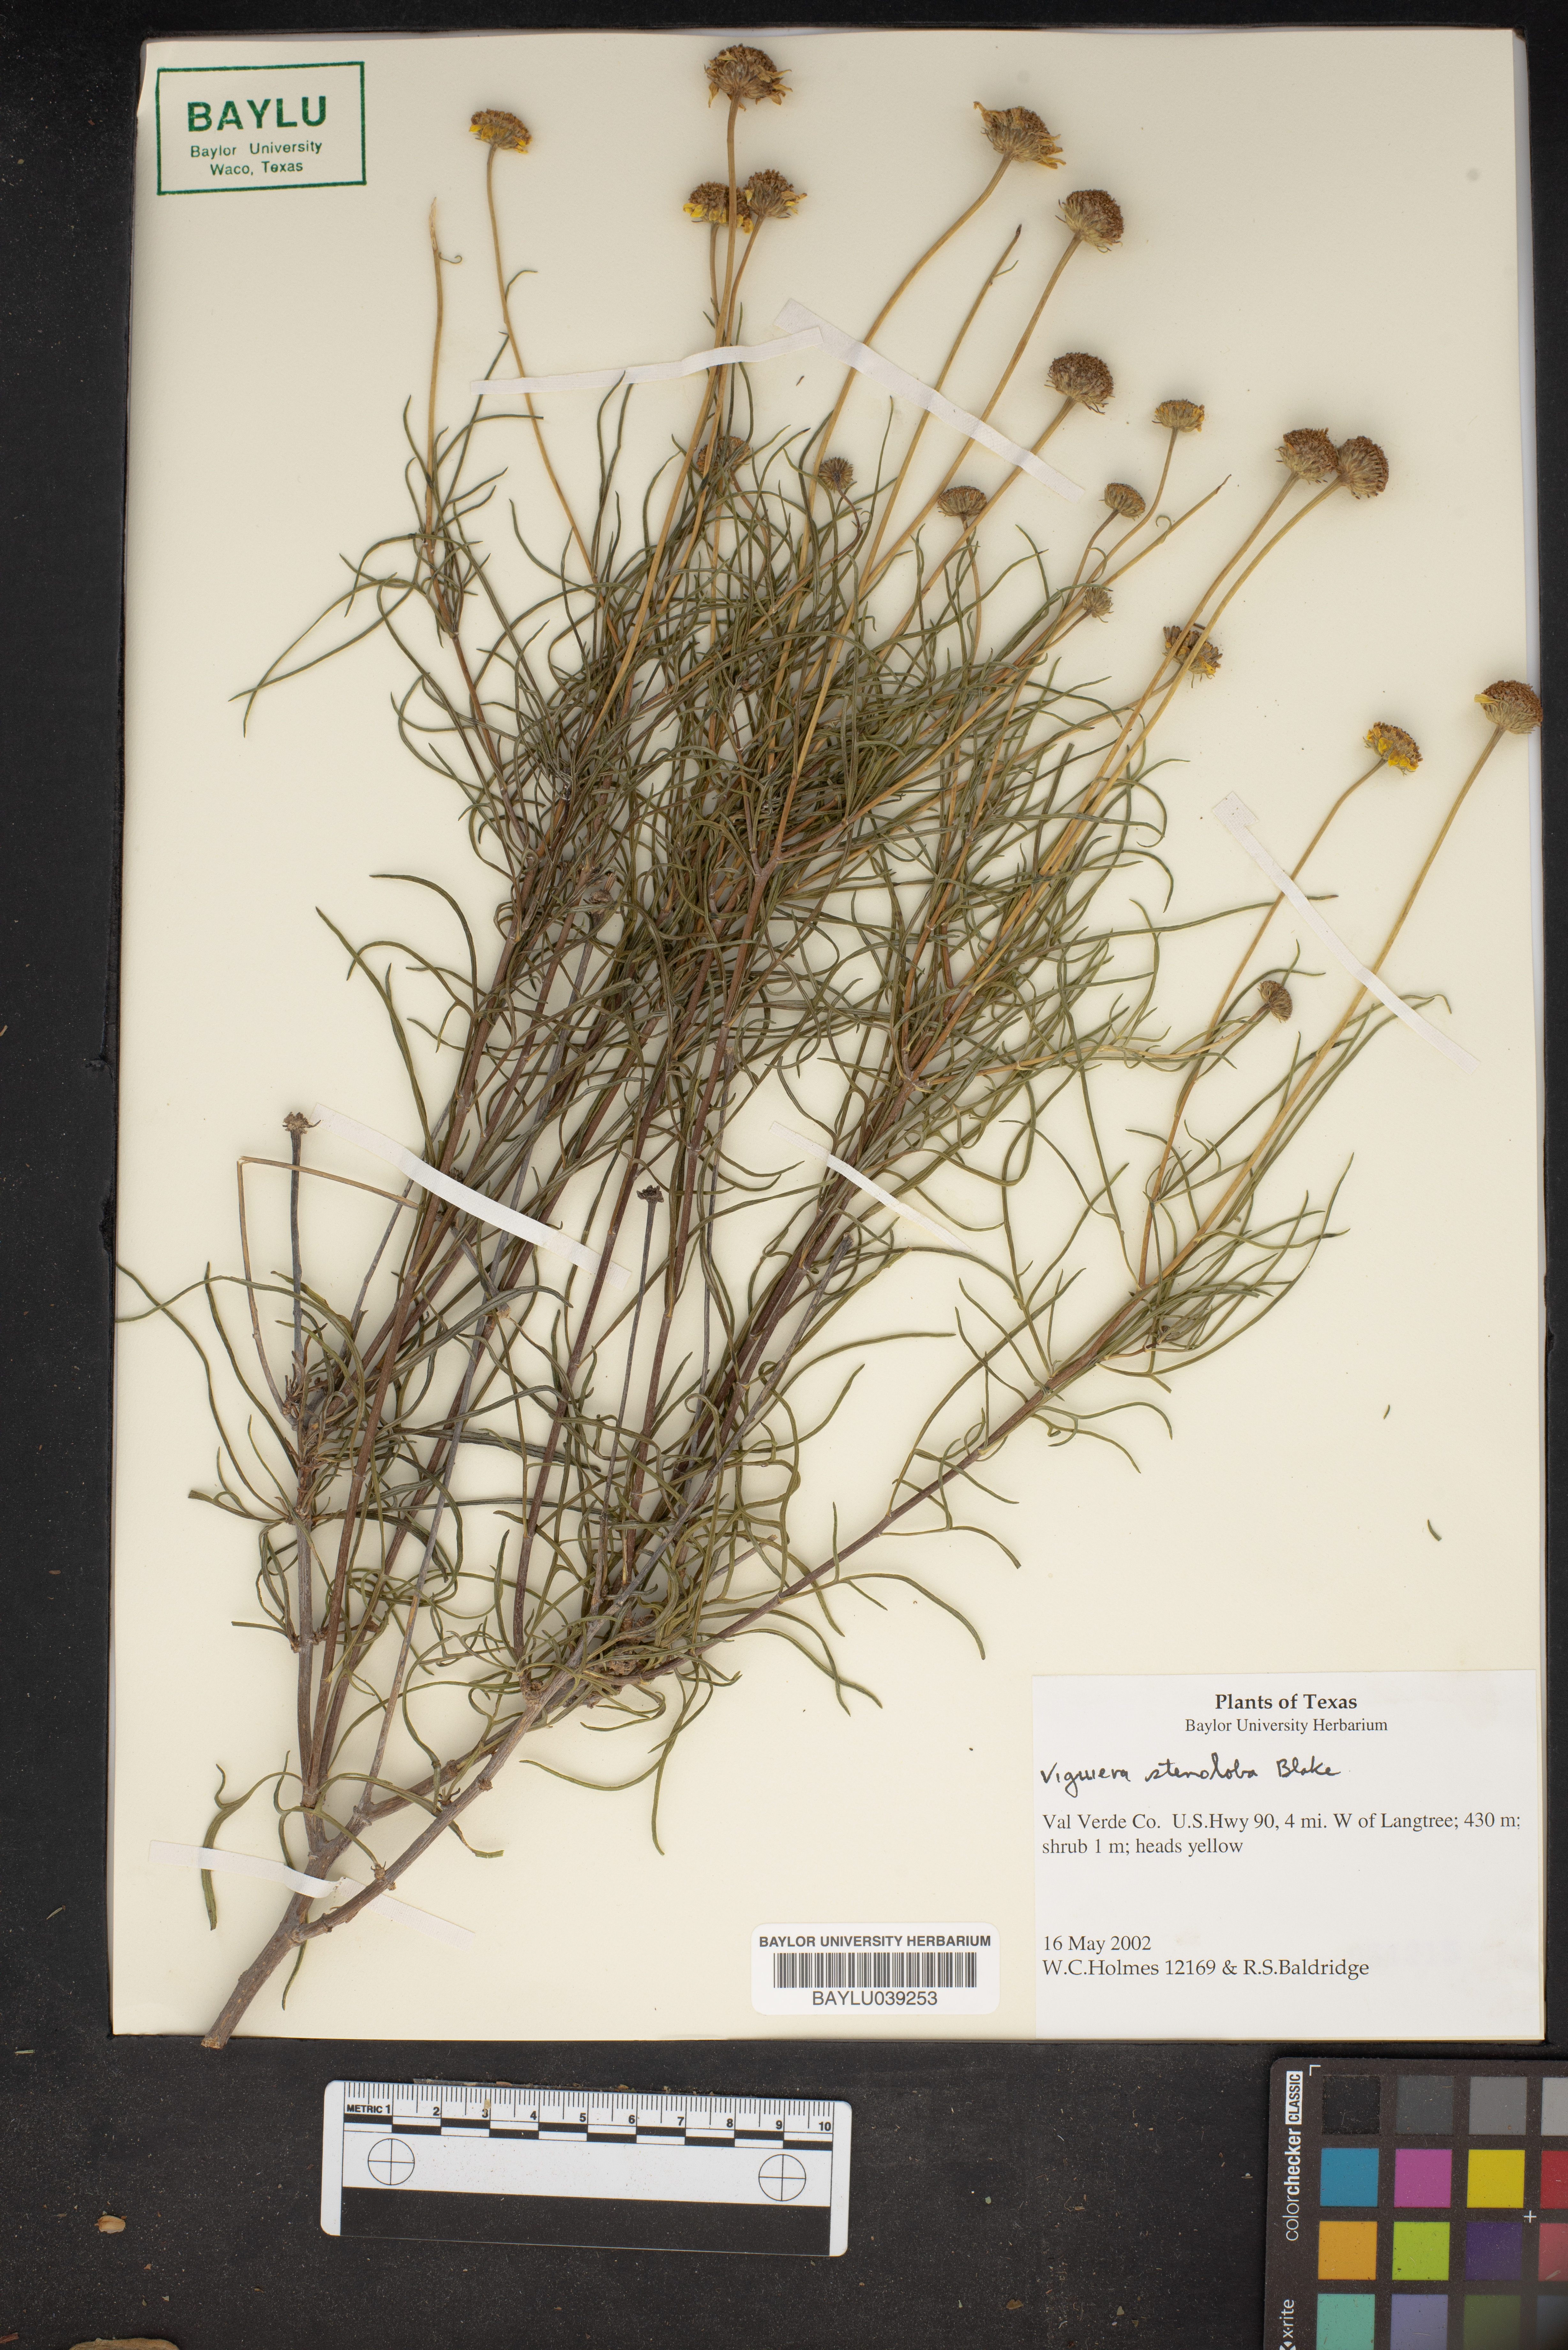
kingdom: Plantae
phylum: Tracheophyta
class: Magnoliopsida
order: Asterales
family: Asteraceae
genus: Sidneya
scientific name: Sidneya tenuifolia
